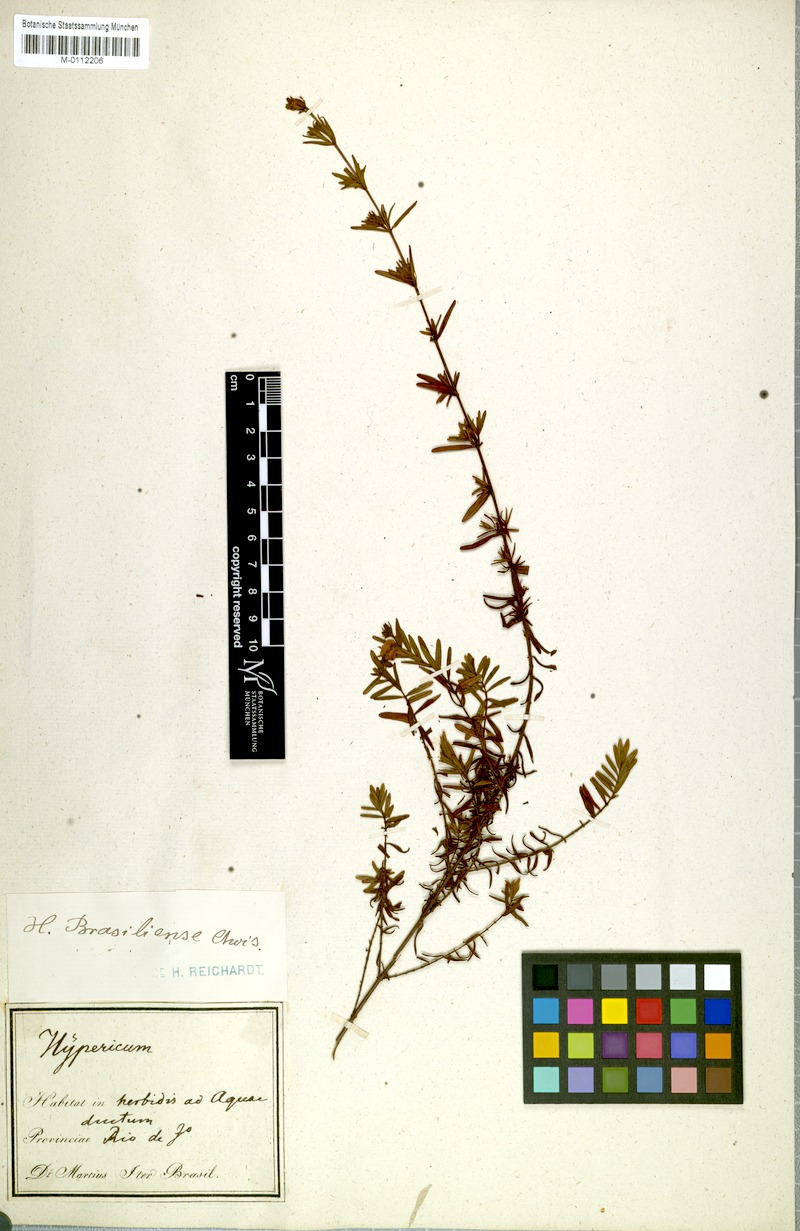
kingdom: Plantae
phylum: Tracheophyta
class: Magnoliopsida
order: Malpighiales
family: Hypericaceae
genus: Hypericum
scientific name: Hypericum brasiliense
